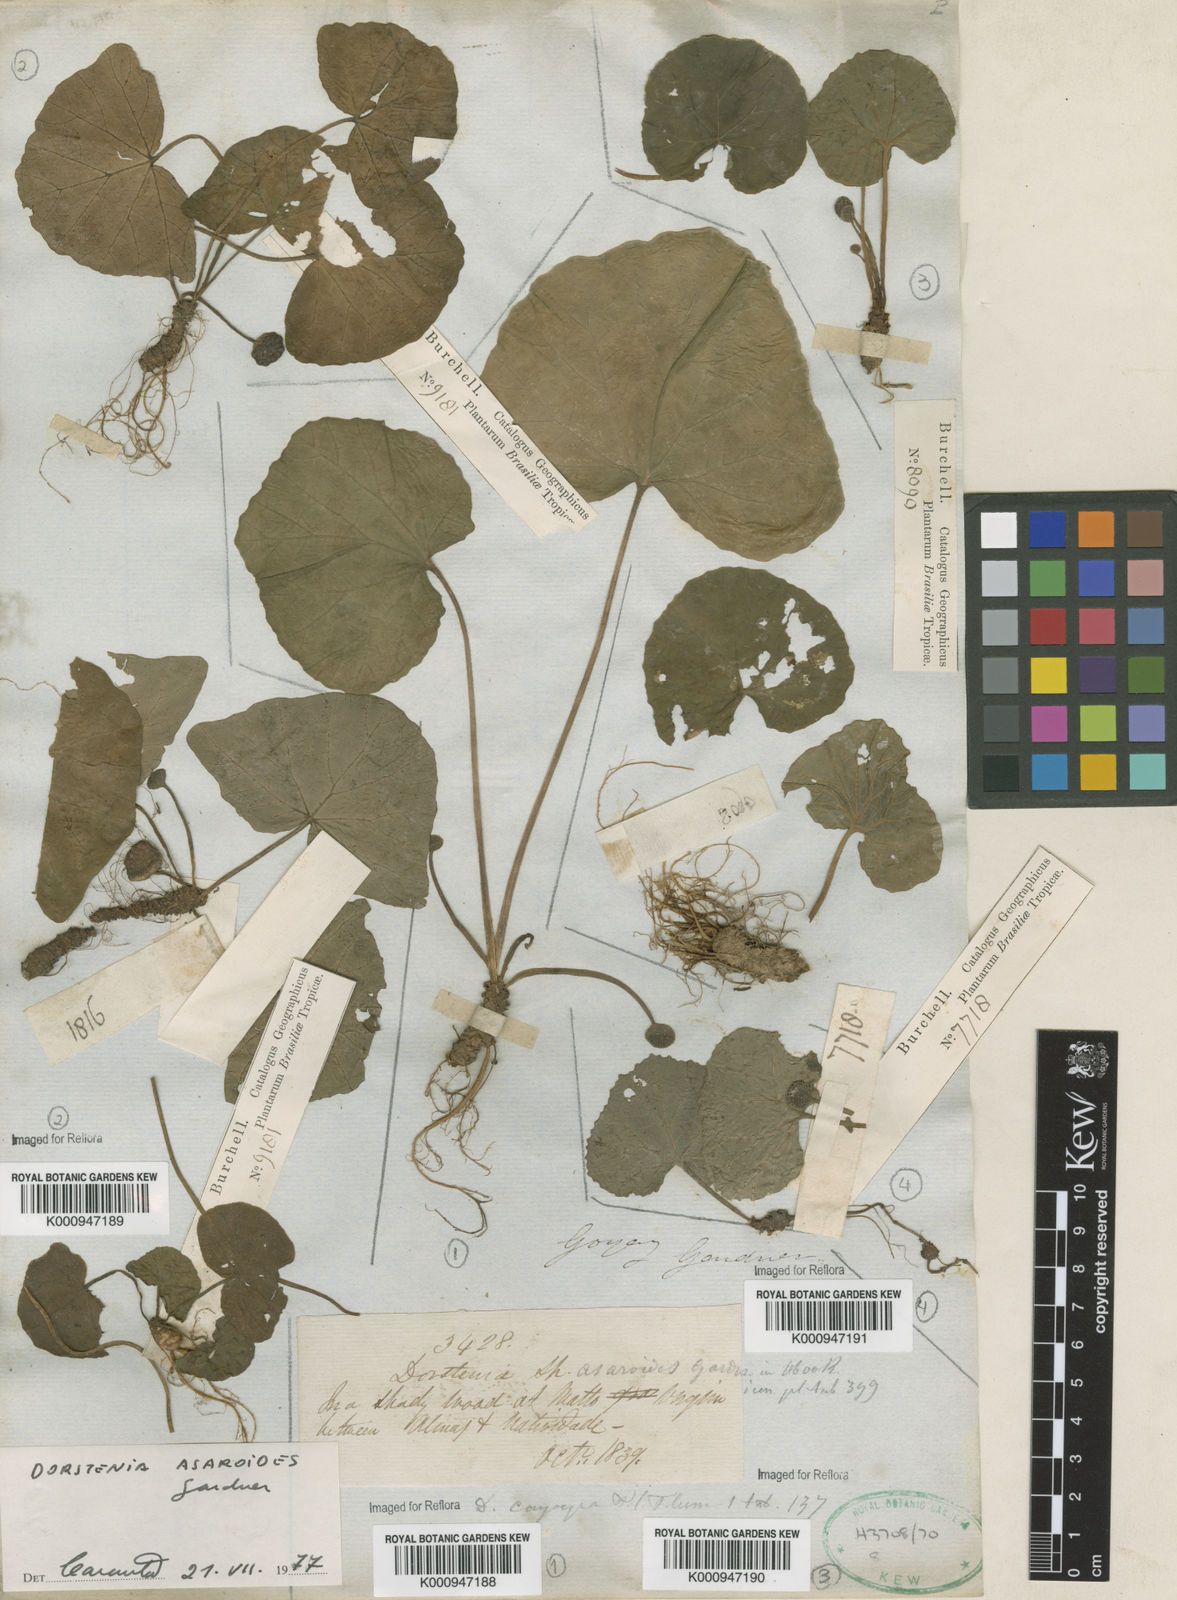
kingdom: Plantae
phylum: Tracheophyta
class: Magnoliopsida
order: Rosales
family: Moraceae
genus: Dorstenia
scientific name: Dorstenia
